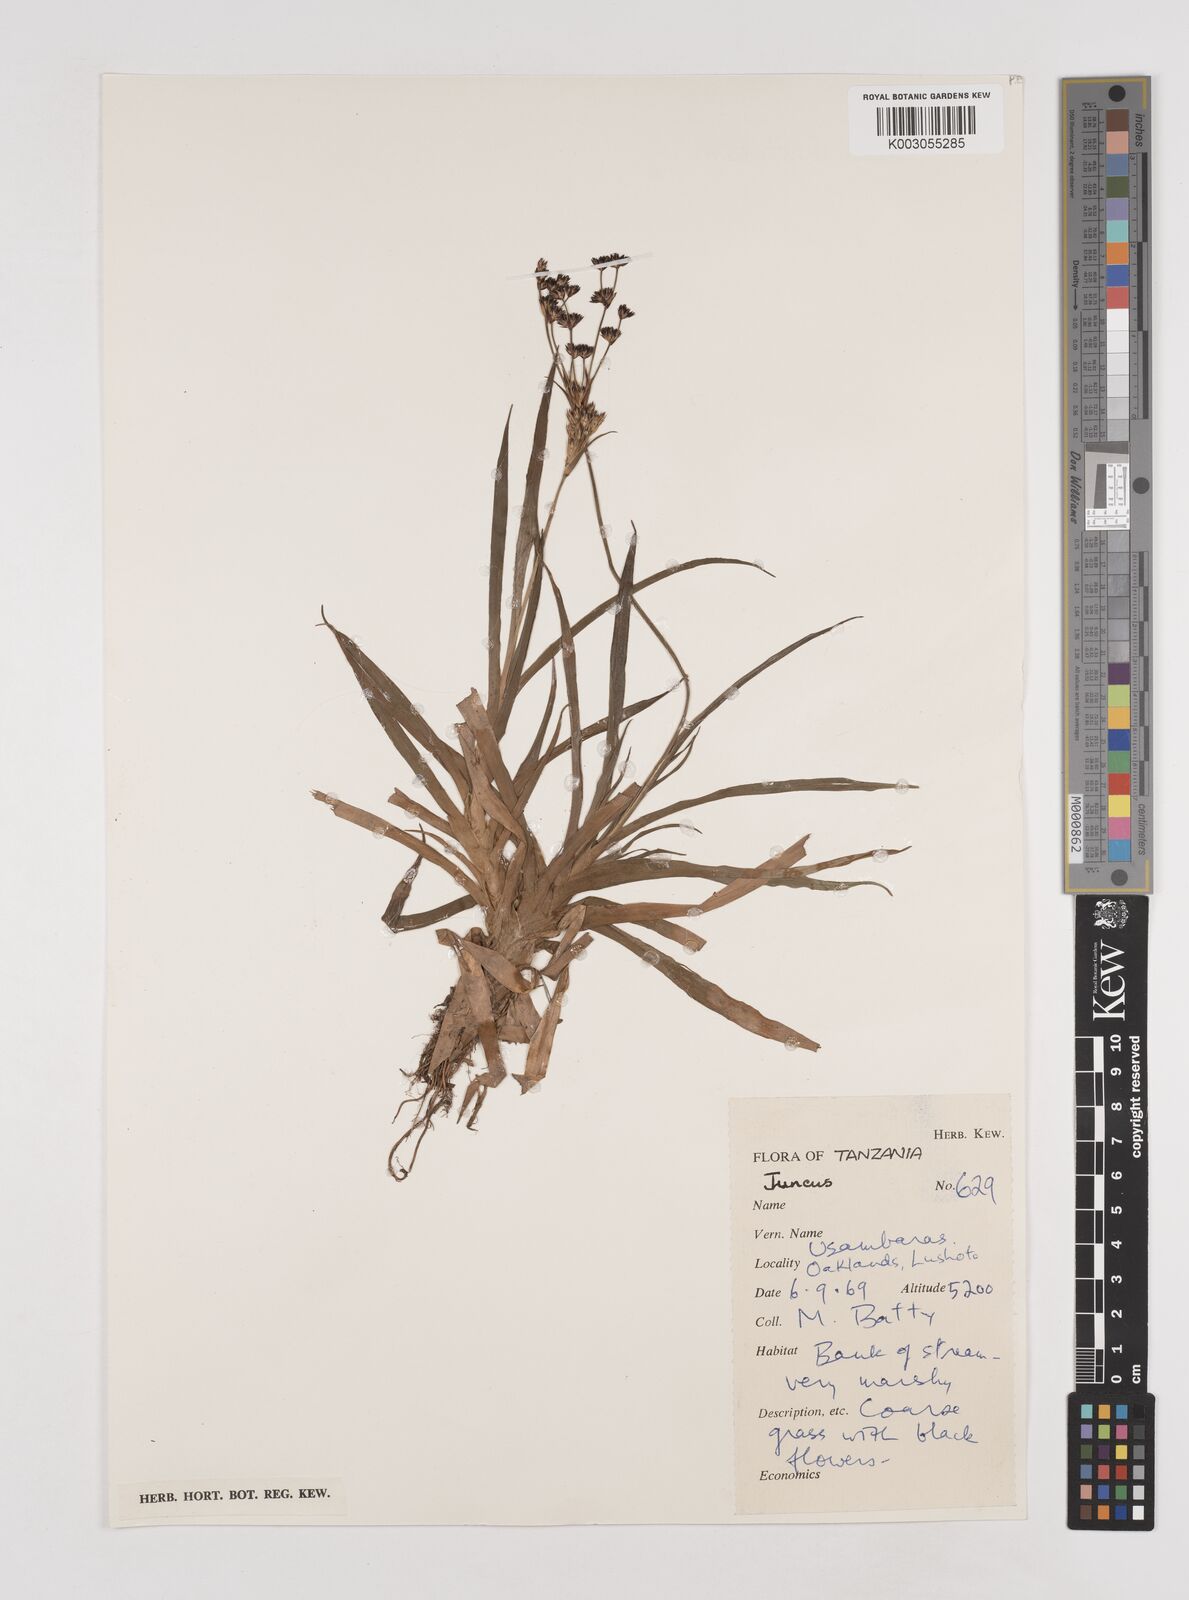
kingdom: Plantae
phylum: Tracheophyta
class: Liliopsida
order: Poales
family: Juncaceae
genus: Juncus
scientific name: Juncus engleri
